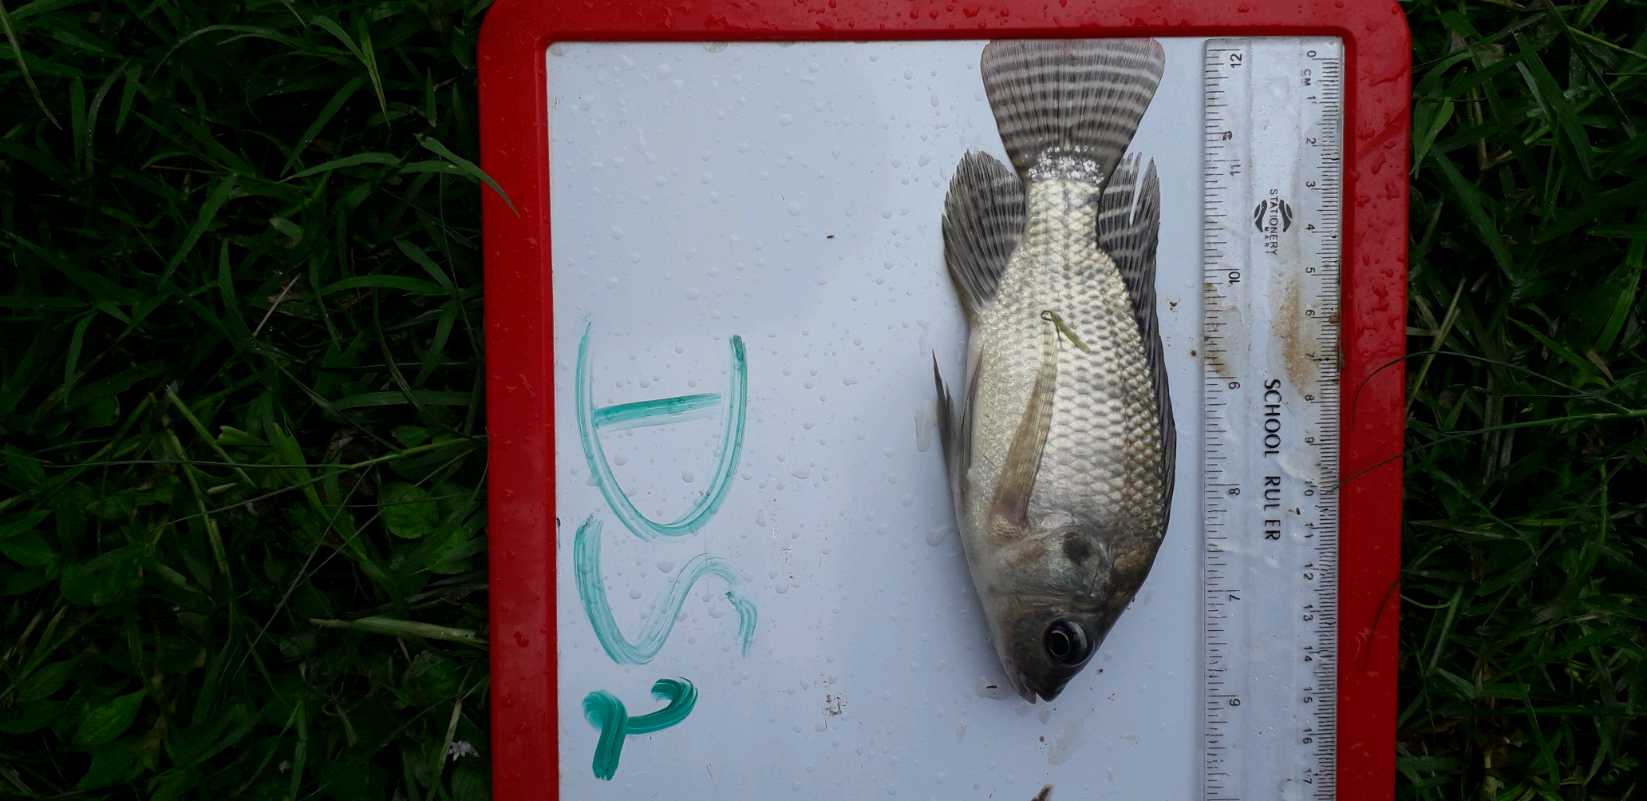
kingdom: Animalia
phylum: Chordata
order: Perciformes
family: Cichlidae
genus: Oreochromis
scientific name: Oreochromis niloticus
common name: Nile tilapia
